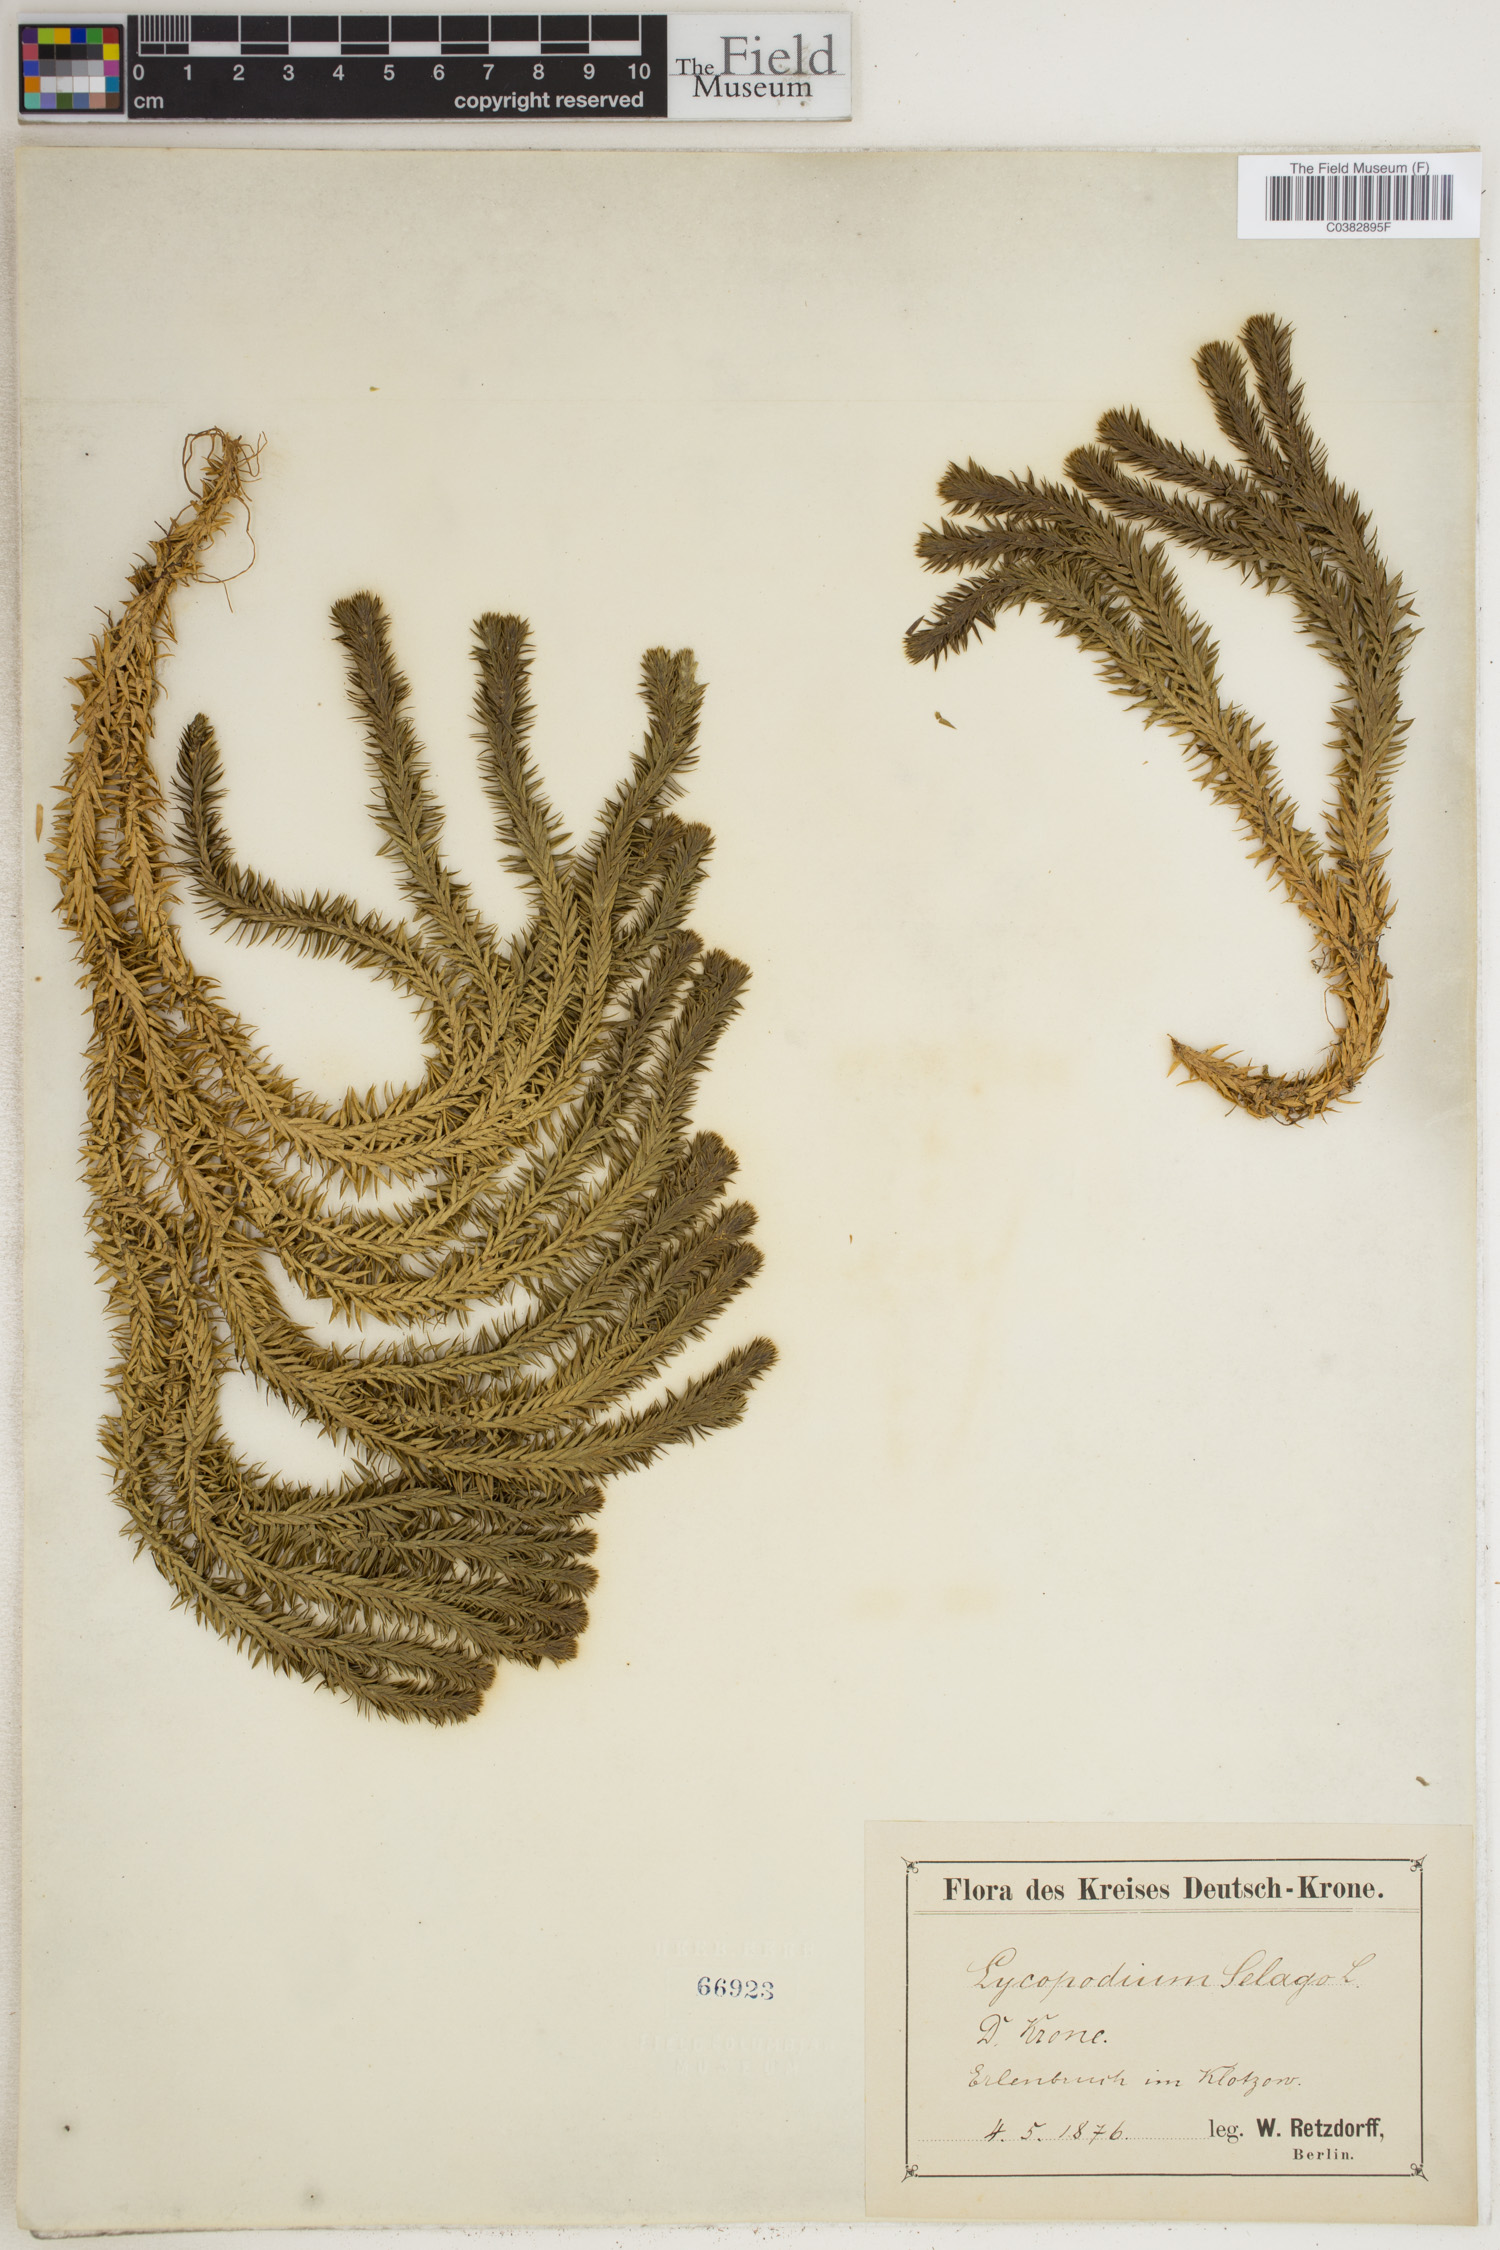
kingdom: Plantae
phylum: Tracheophyta
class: Lycopodiopsida
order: Lycopodiales
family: Lycopodiaceae
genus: Huperzia
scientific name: Huperzia selago
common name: Northern firmoss
